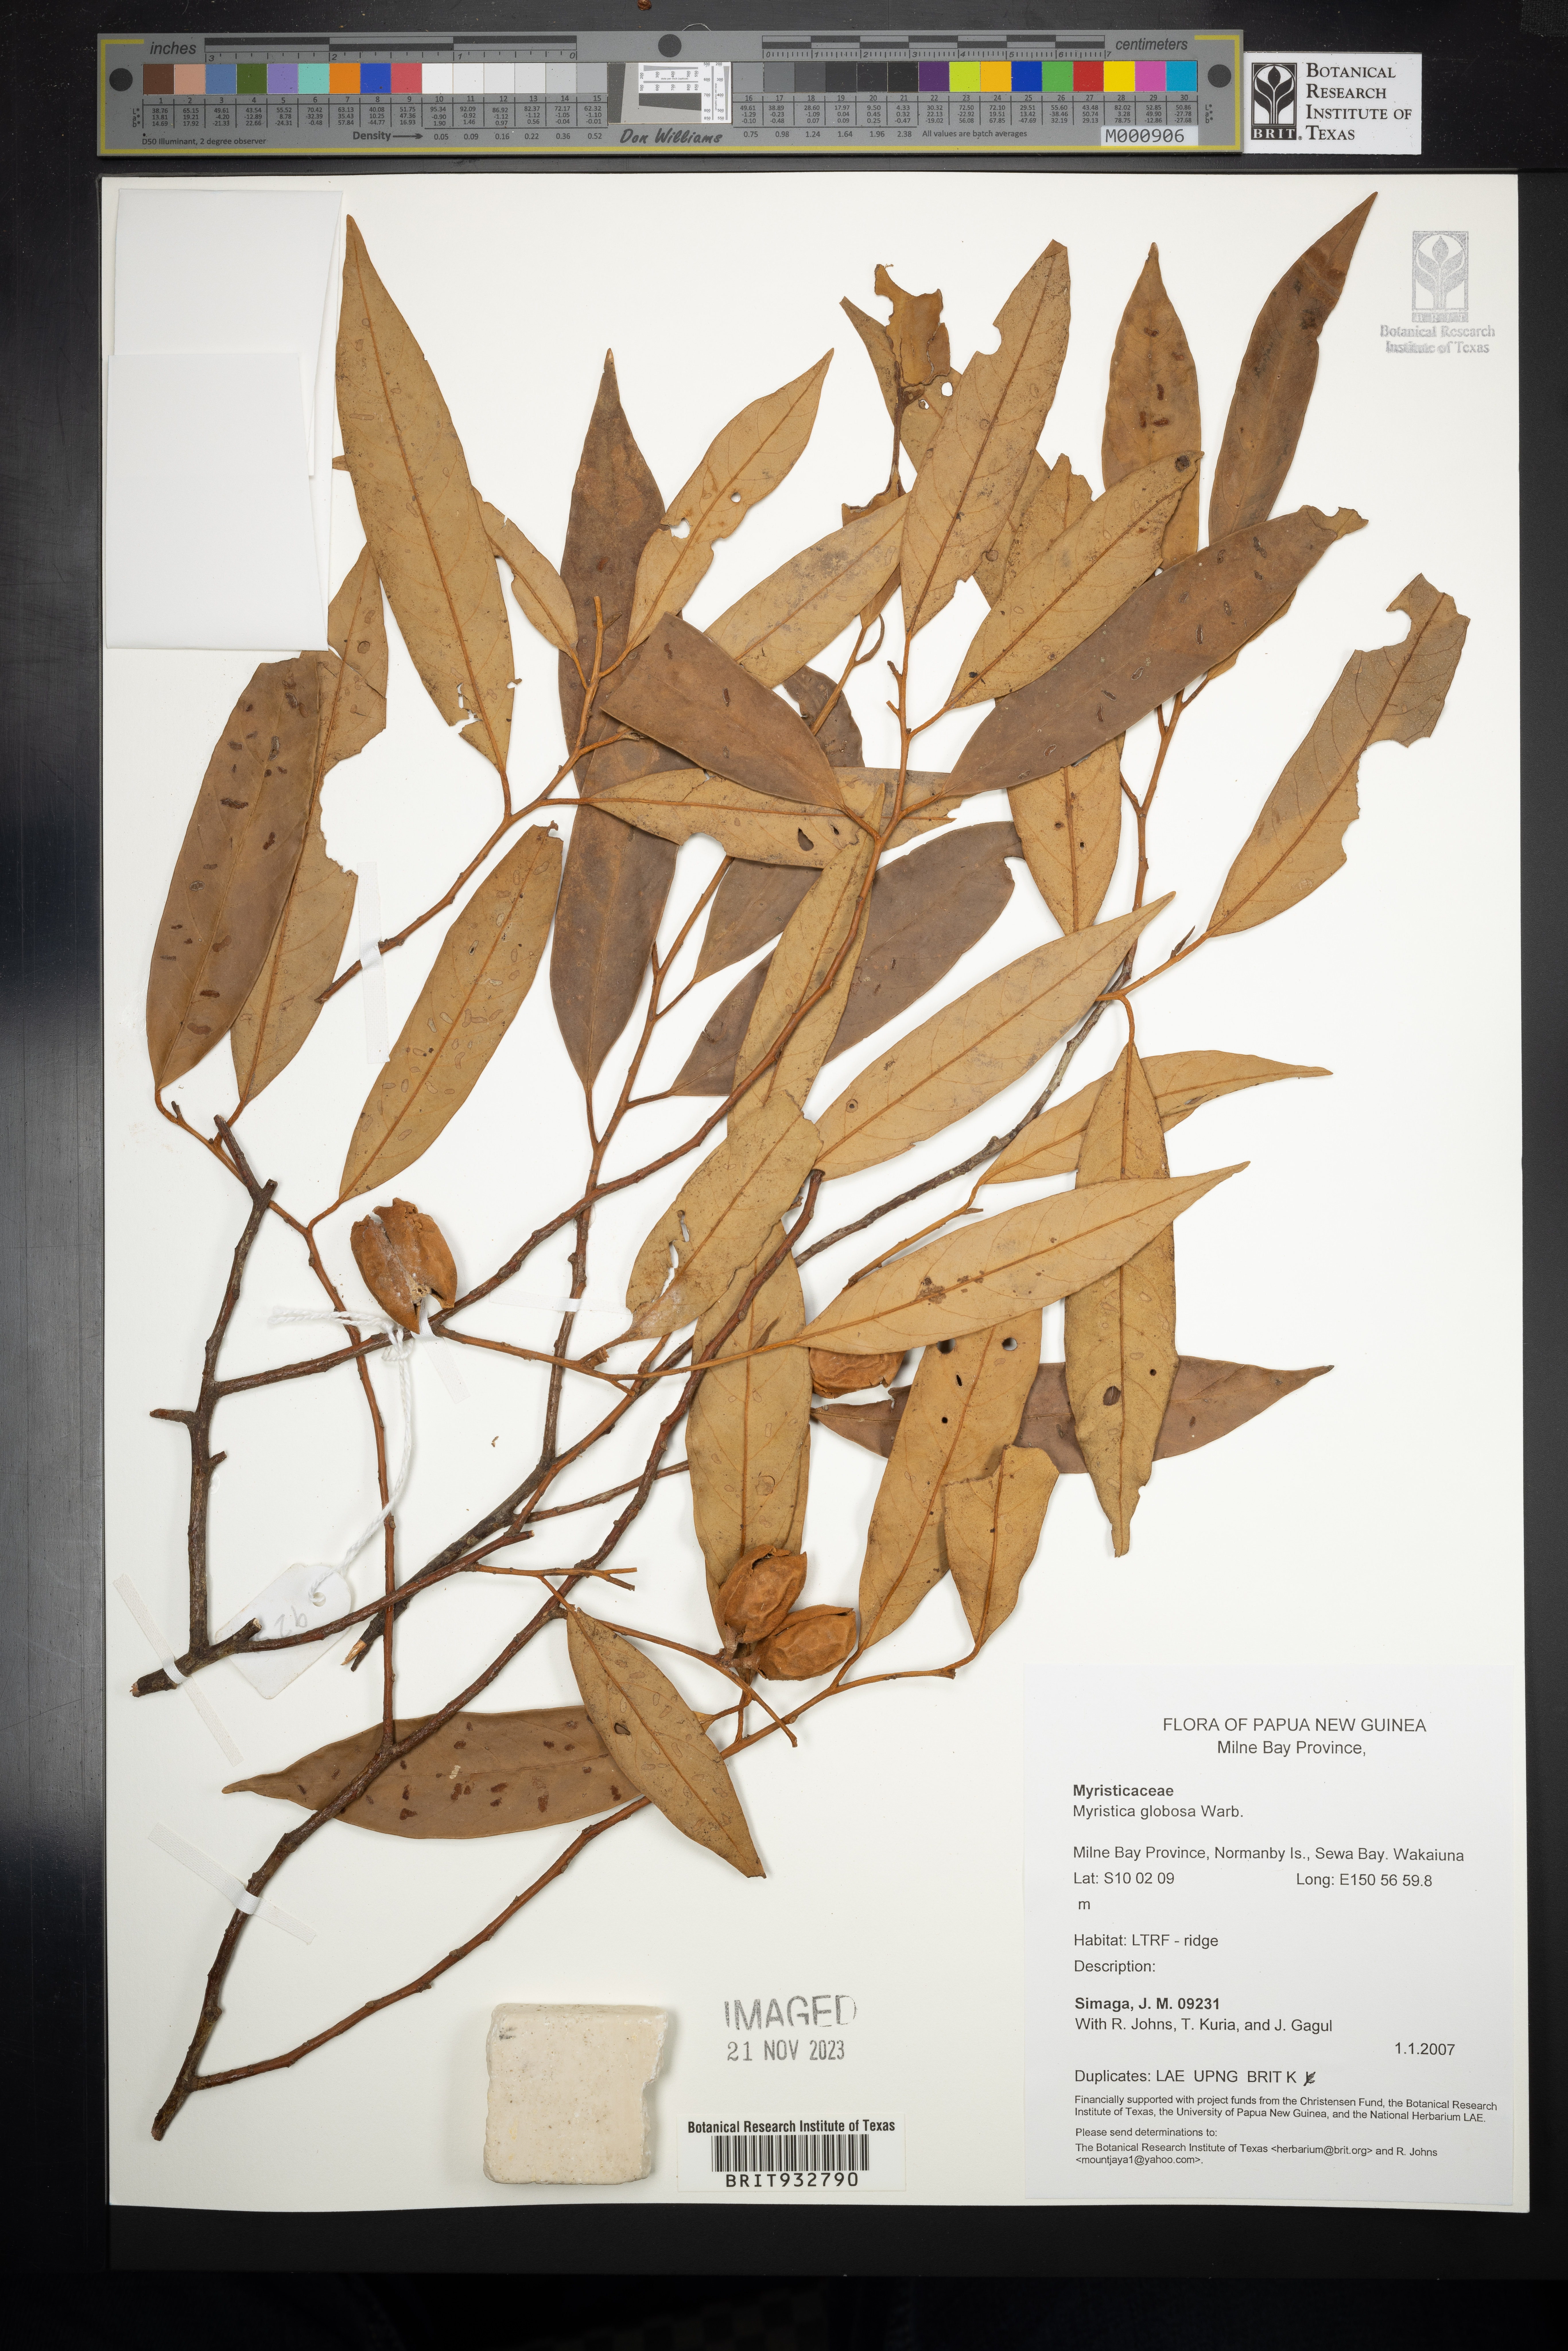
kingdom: Plantae
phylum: Tracheophyta
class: Magnoliopsida
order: Magnoliales
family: Myristicaceae
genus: Myristica
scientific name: Myristica
